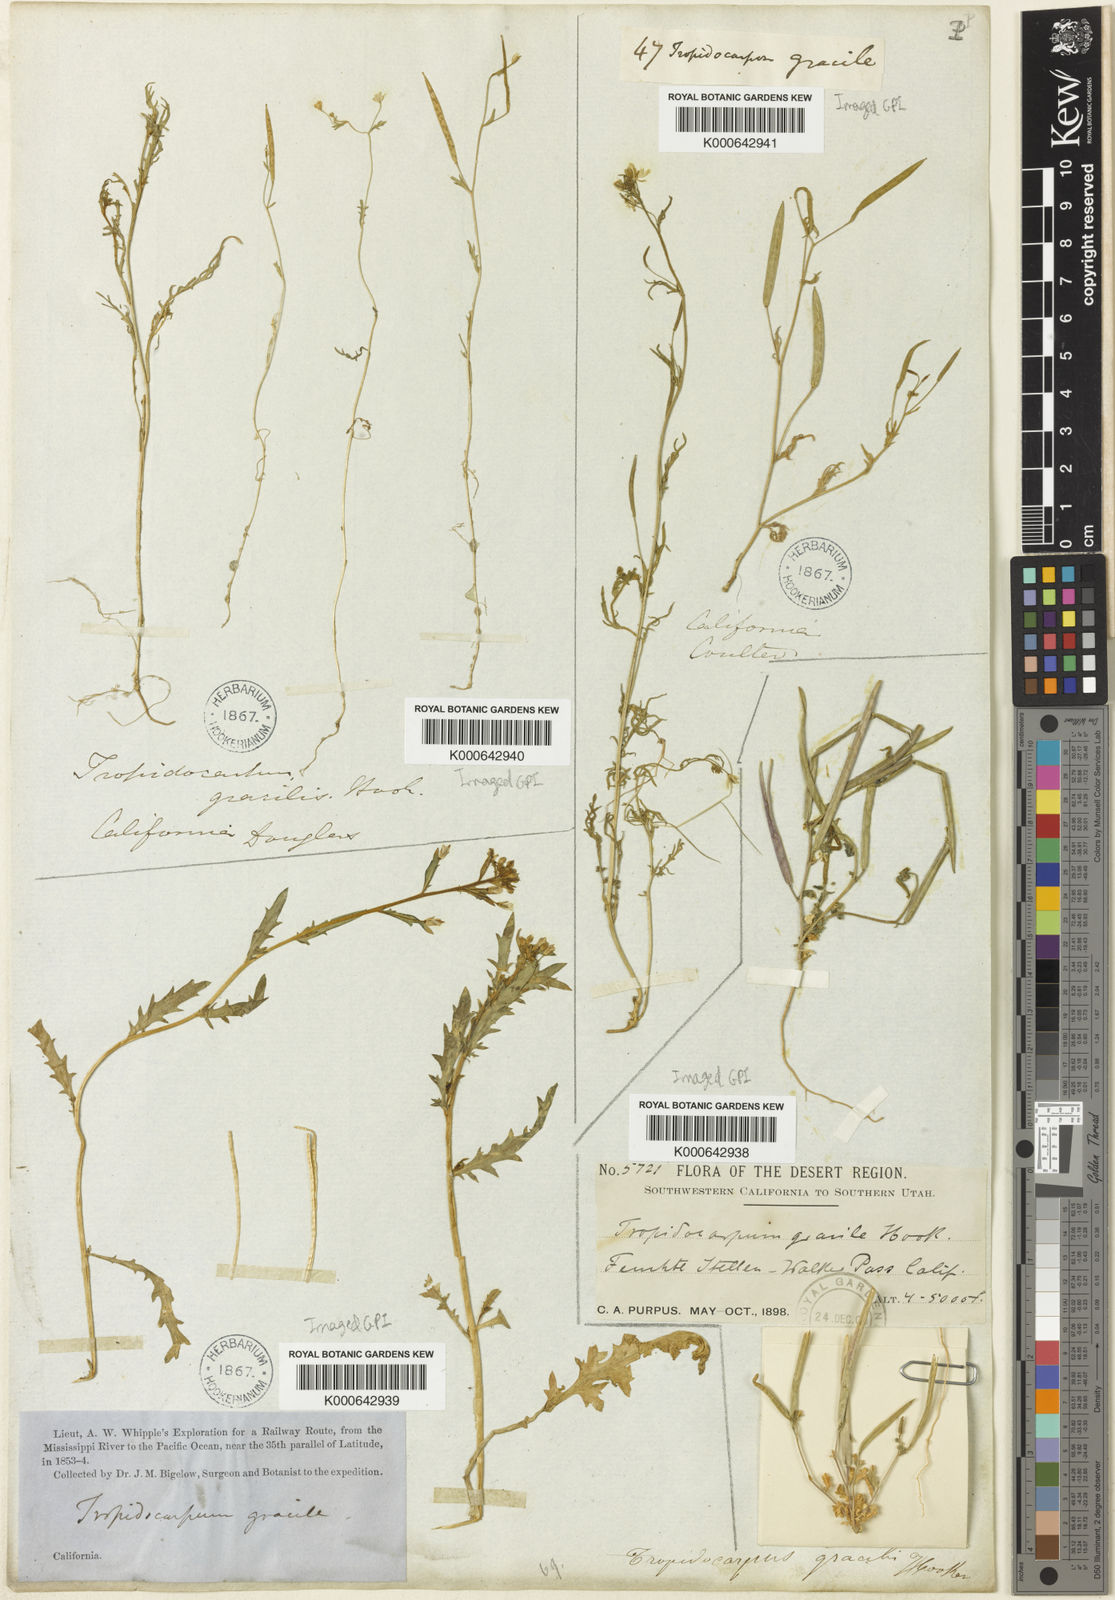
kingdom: Plantae
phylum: Tracheophyta
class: Magnoliopsida
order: Brassicales
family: Brassicaceae
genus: Tropidocarpum
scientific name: Tropidocarpum gracile
